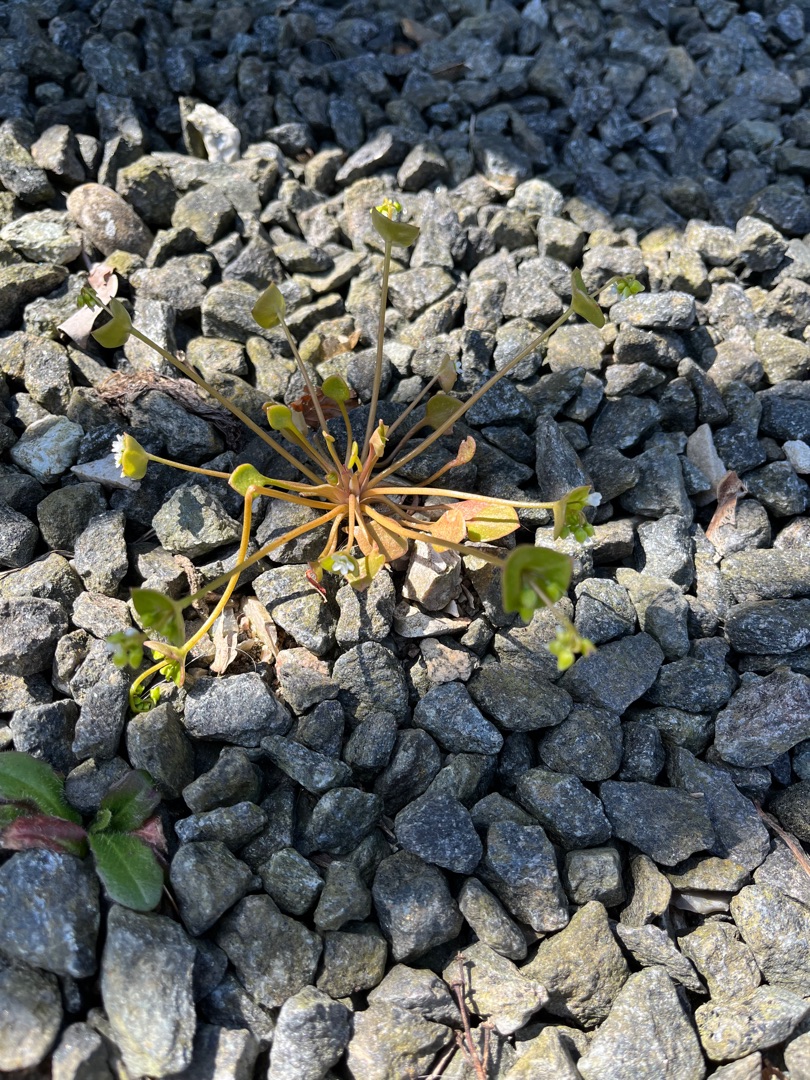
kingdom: Plantae
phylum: Tracheophyta
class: Magnoliopsida
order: Caryophyllales
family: Montiaceae
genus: Claytonia
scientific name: Claytonia perfoliata
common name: Spiselig vinterportulak
